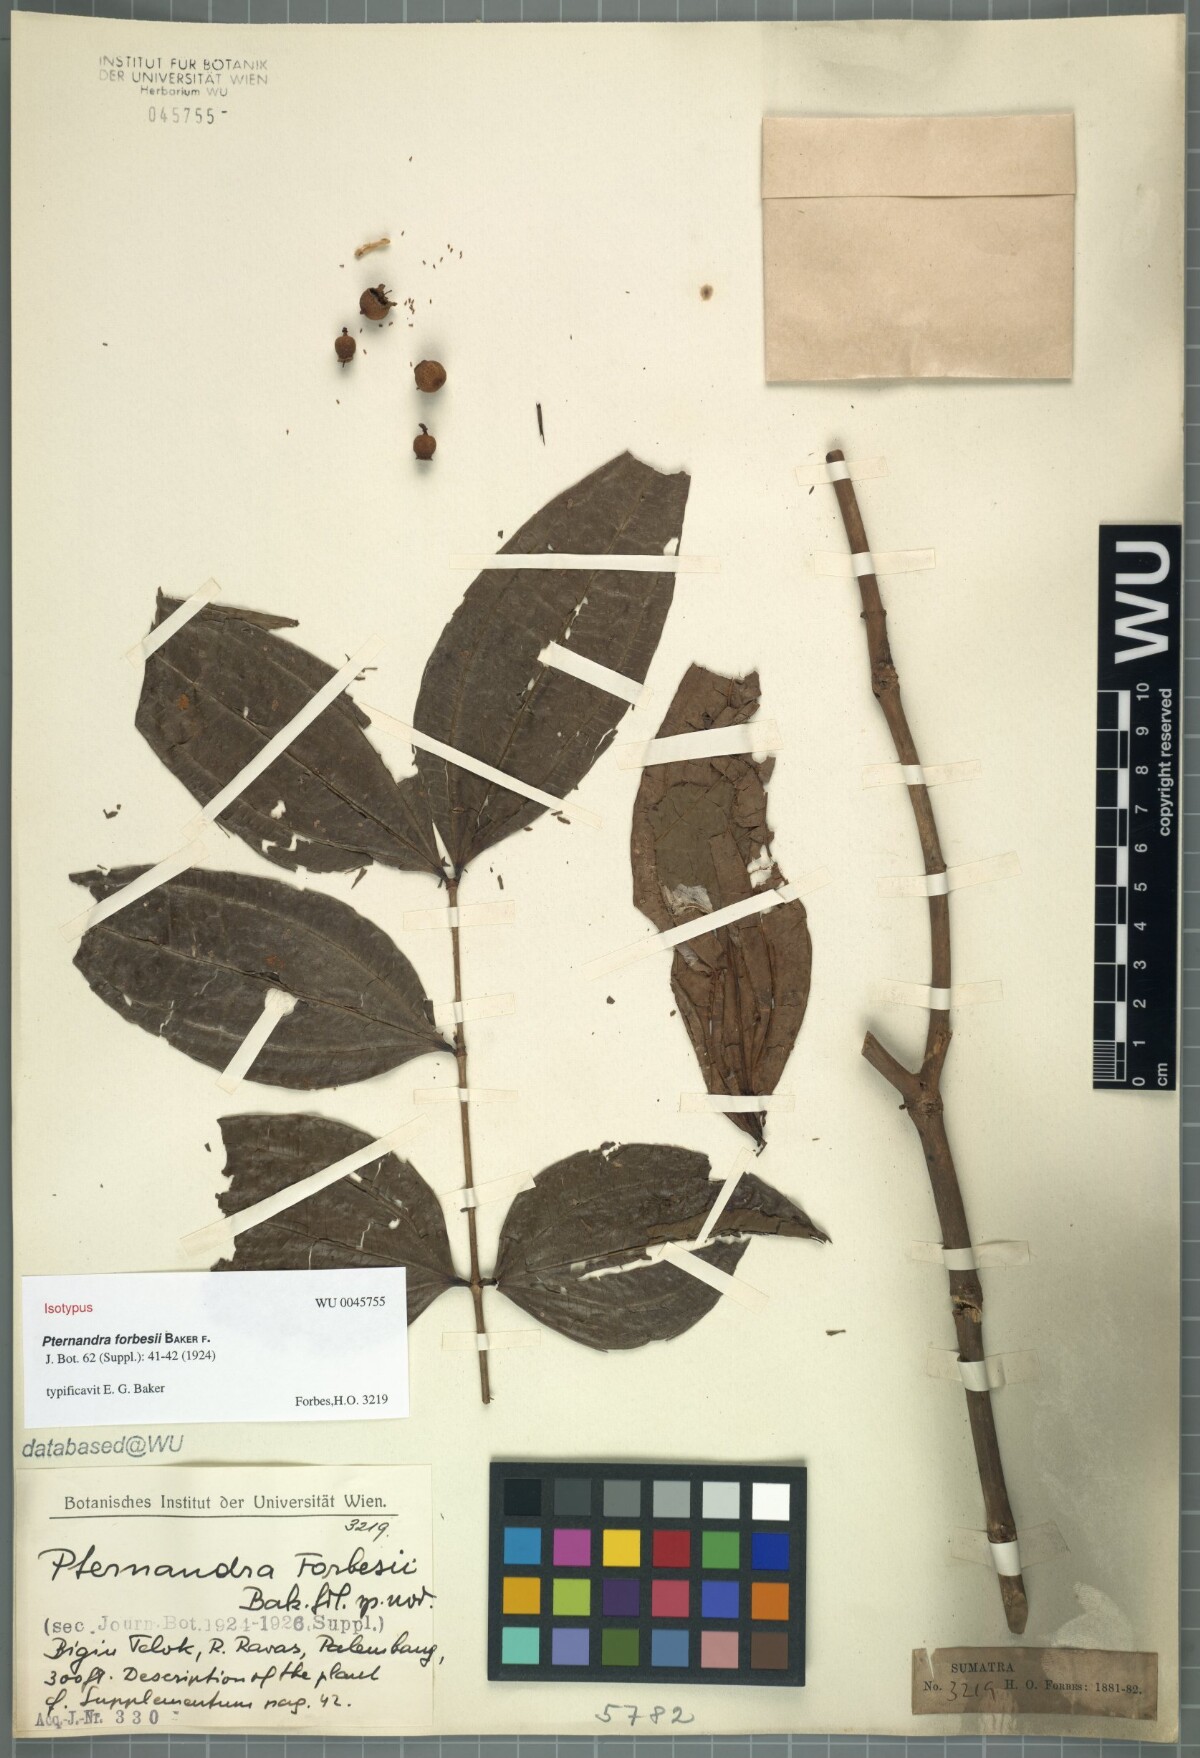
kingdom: Plantae
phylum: Tracheophyta
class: Magnoliopsida
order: Myrtales
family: Melastomataceae
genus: Pternandra
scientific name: Pternandra galeata
